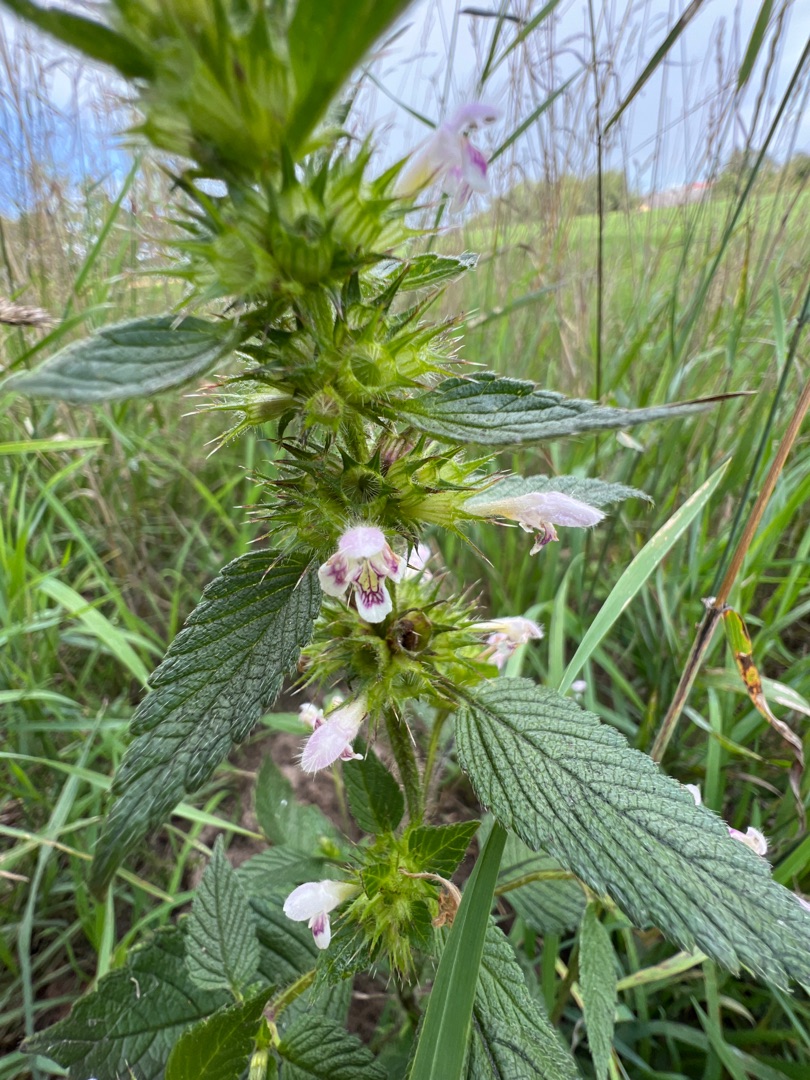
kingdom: Plantae
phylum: Tracheophyta
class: Magnoliopsida
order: Lamiales
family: Lamiaceae
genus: Galeopsis
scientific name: Galeopsis tetrahit
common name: Almindelig hanekro
